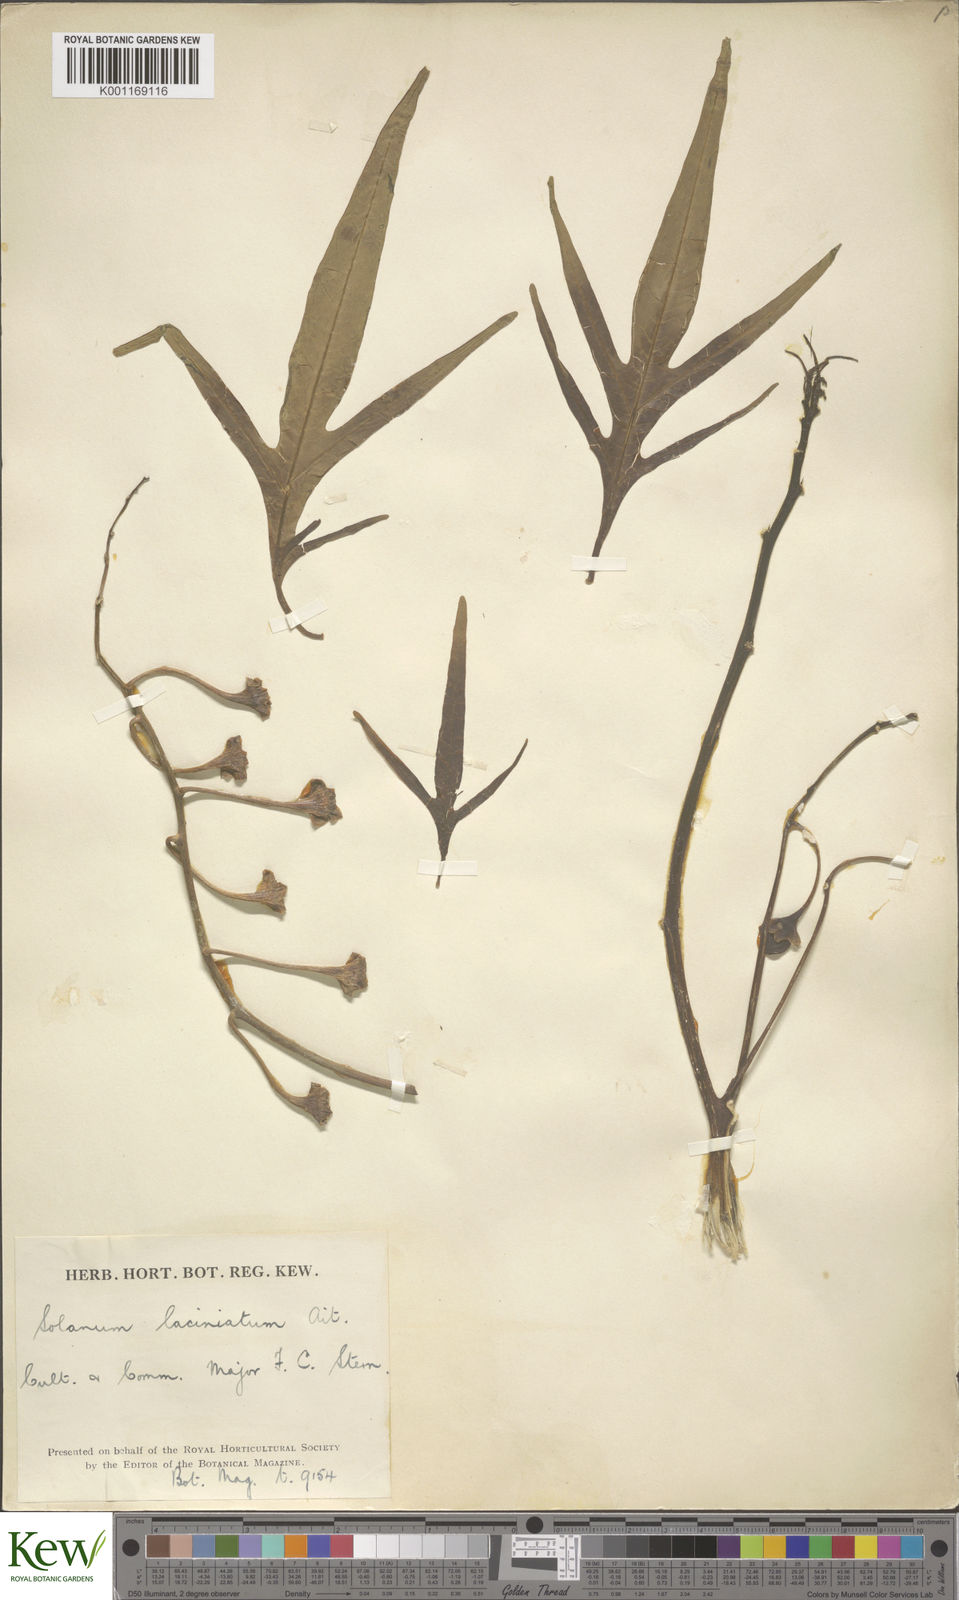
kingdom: Plantae
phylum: Tracheophyta
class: Magnoliopsida
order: Solanales
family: Solanaceae
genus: Solanum
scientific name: Solanum laciniatum
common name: Kangaroo-apple
